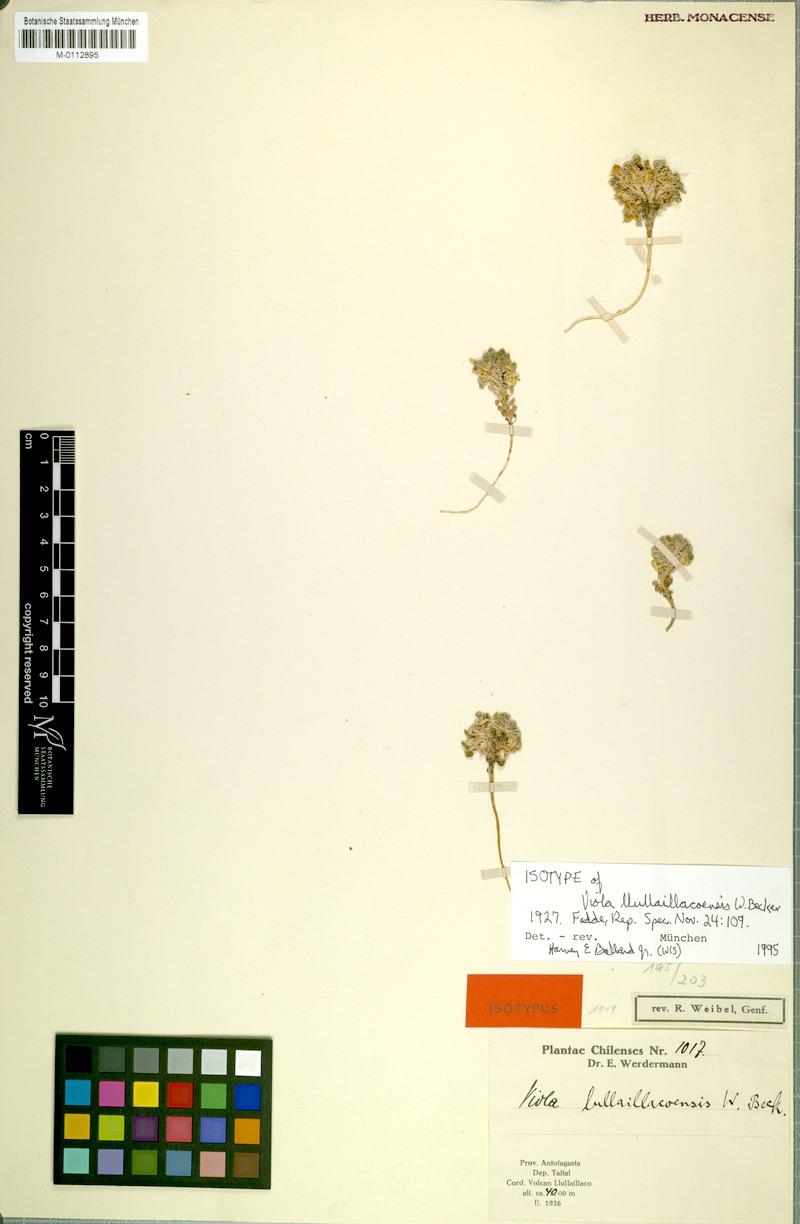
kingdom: Plantae
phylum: Tracheophyta
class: Magnoliopsida
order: Malpighiales
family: Violaceae
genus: Viola
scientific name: Viola llullaillacoensis
